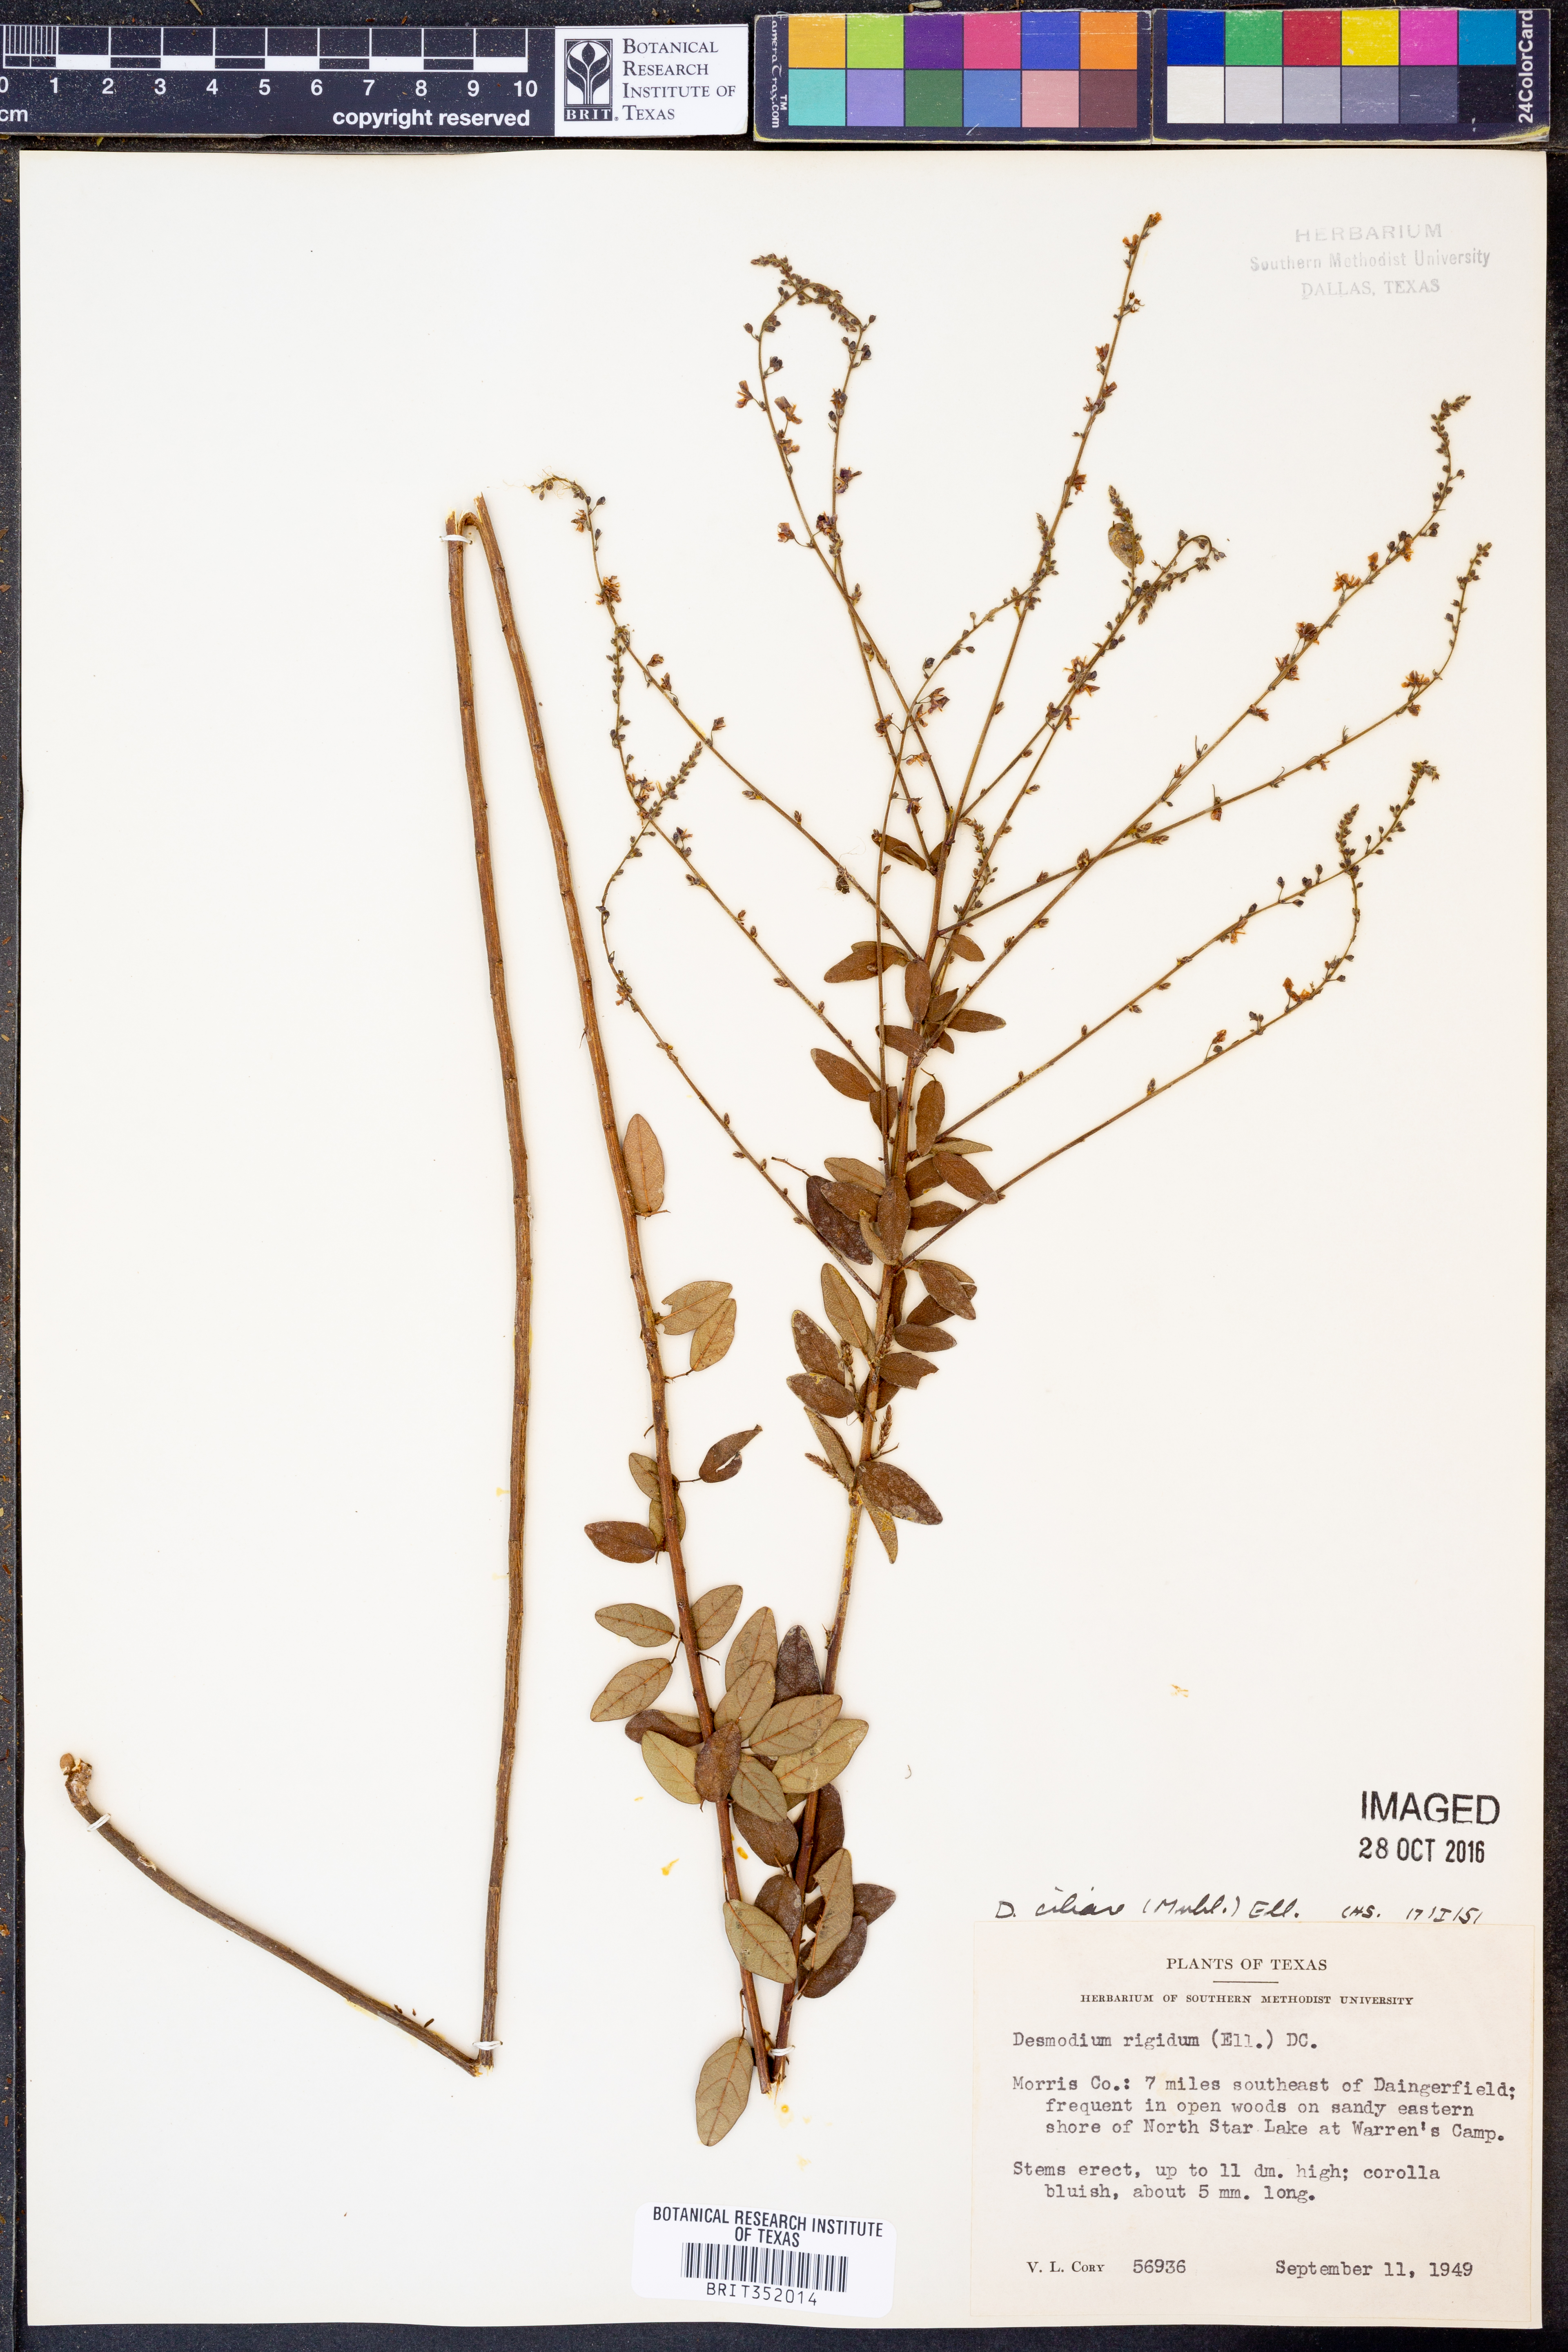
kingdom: Plantae
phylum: Tracheophyta
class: Magnoliopsida
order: Fabales
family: Fabaceae
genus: Desmodium
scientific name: Desmodium ciliare
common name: Hairy small-leaf ticktrefoil
